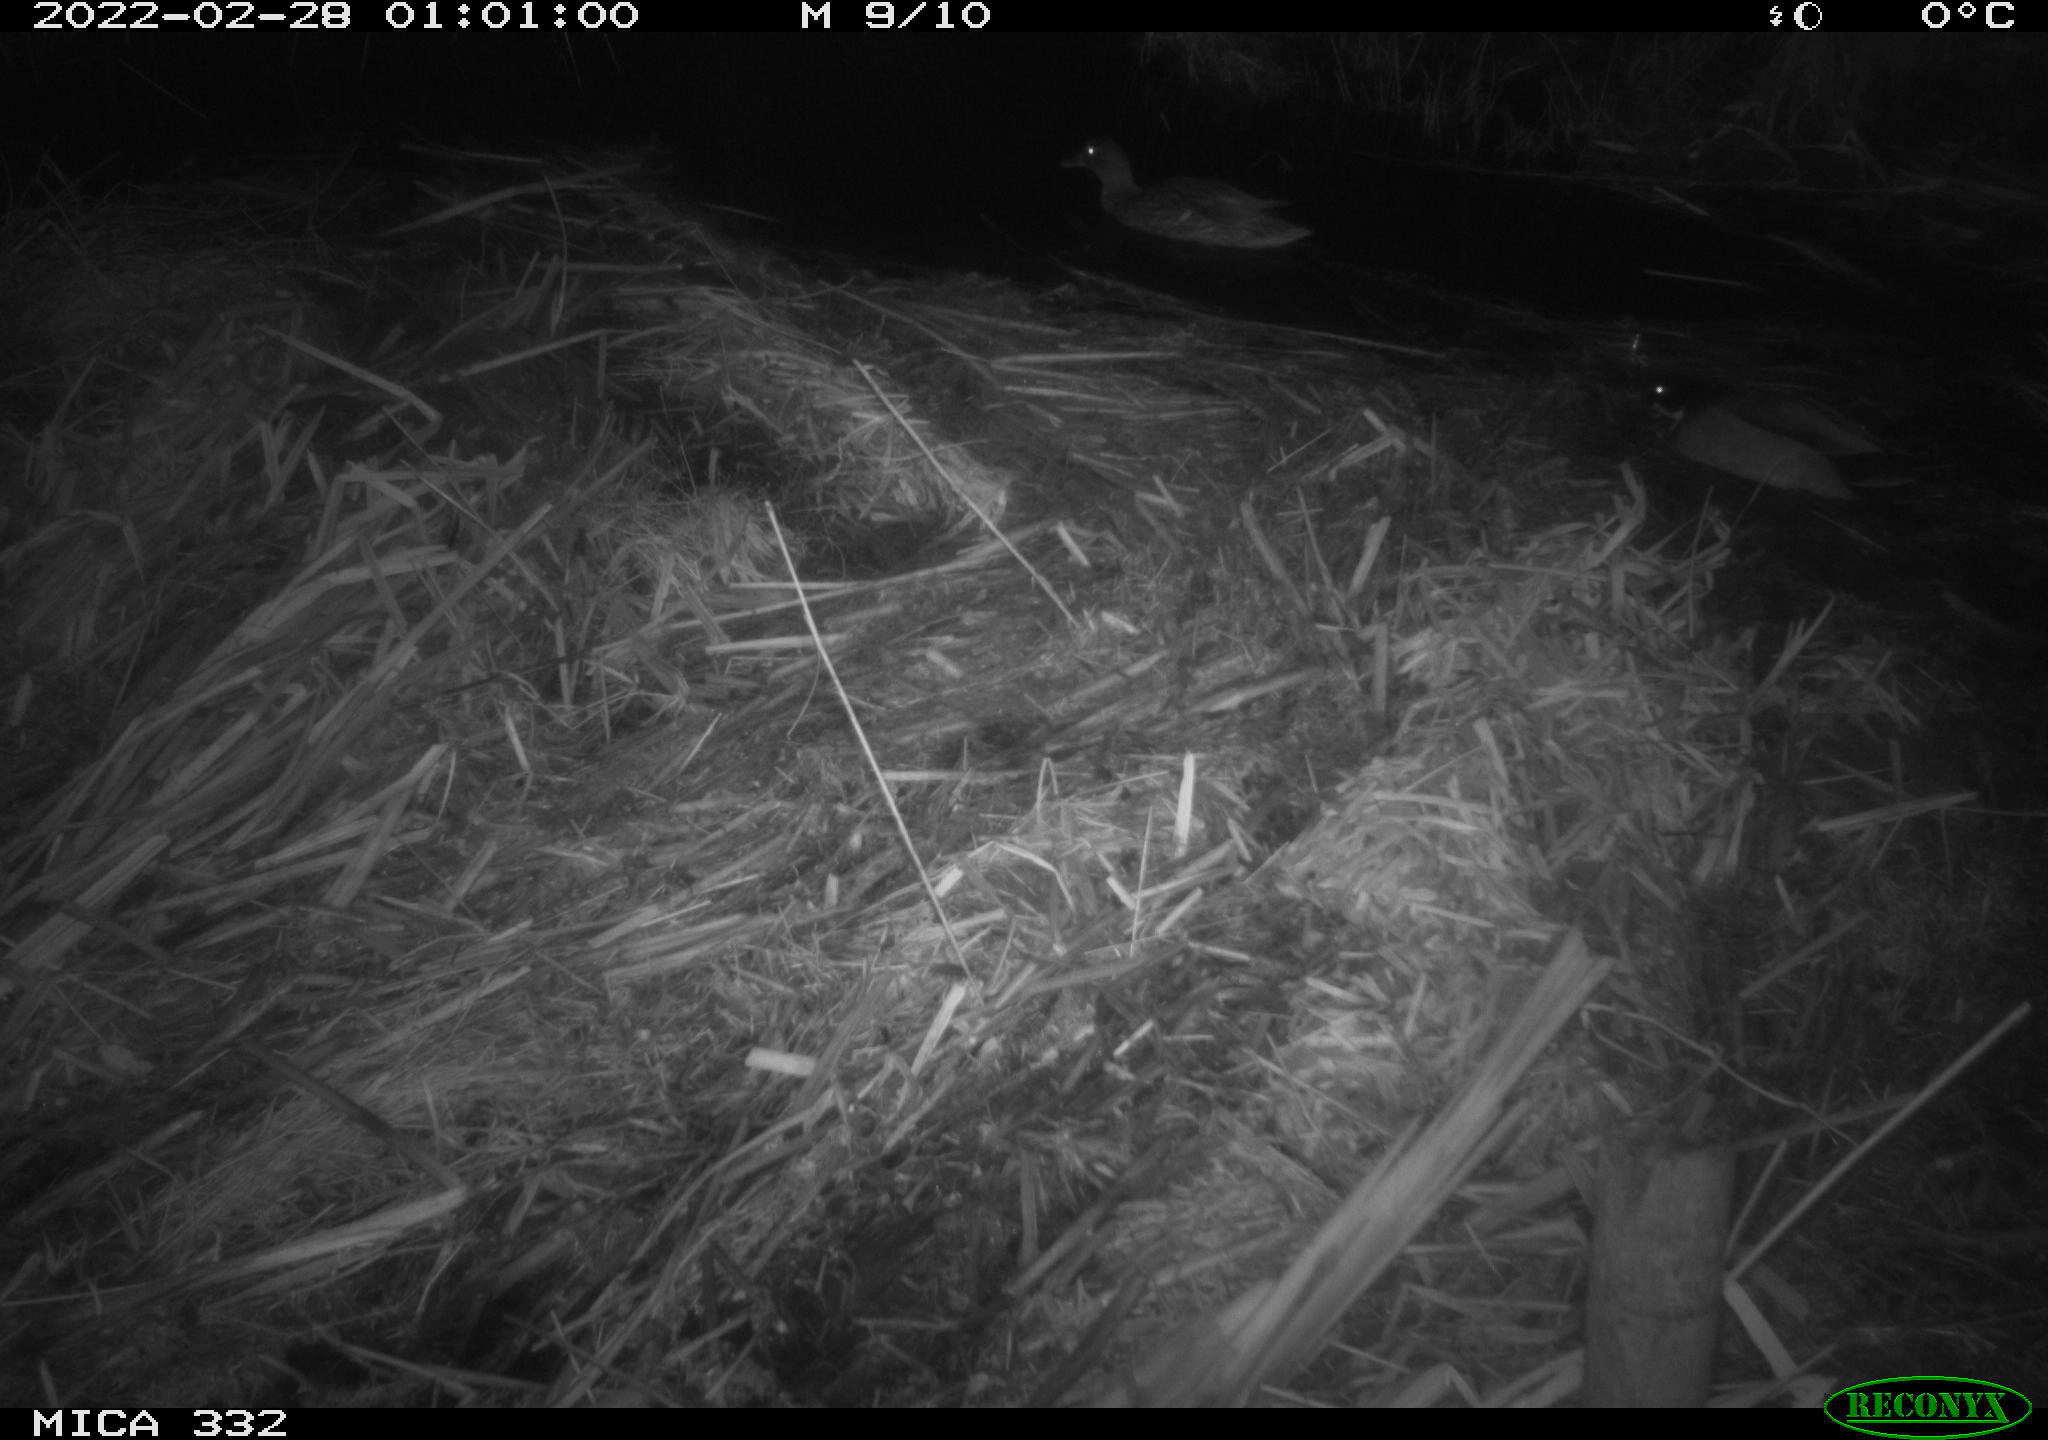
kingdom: Animalia
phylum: Chordata
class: Aves
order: Anseriformes
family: Anatidae
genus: Anas
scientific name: Anas platyrhynchos
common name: Mallard
